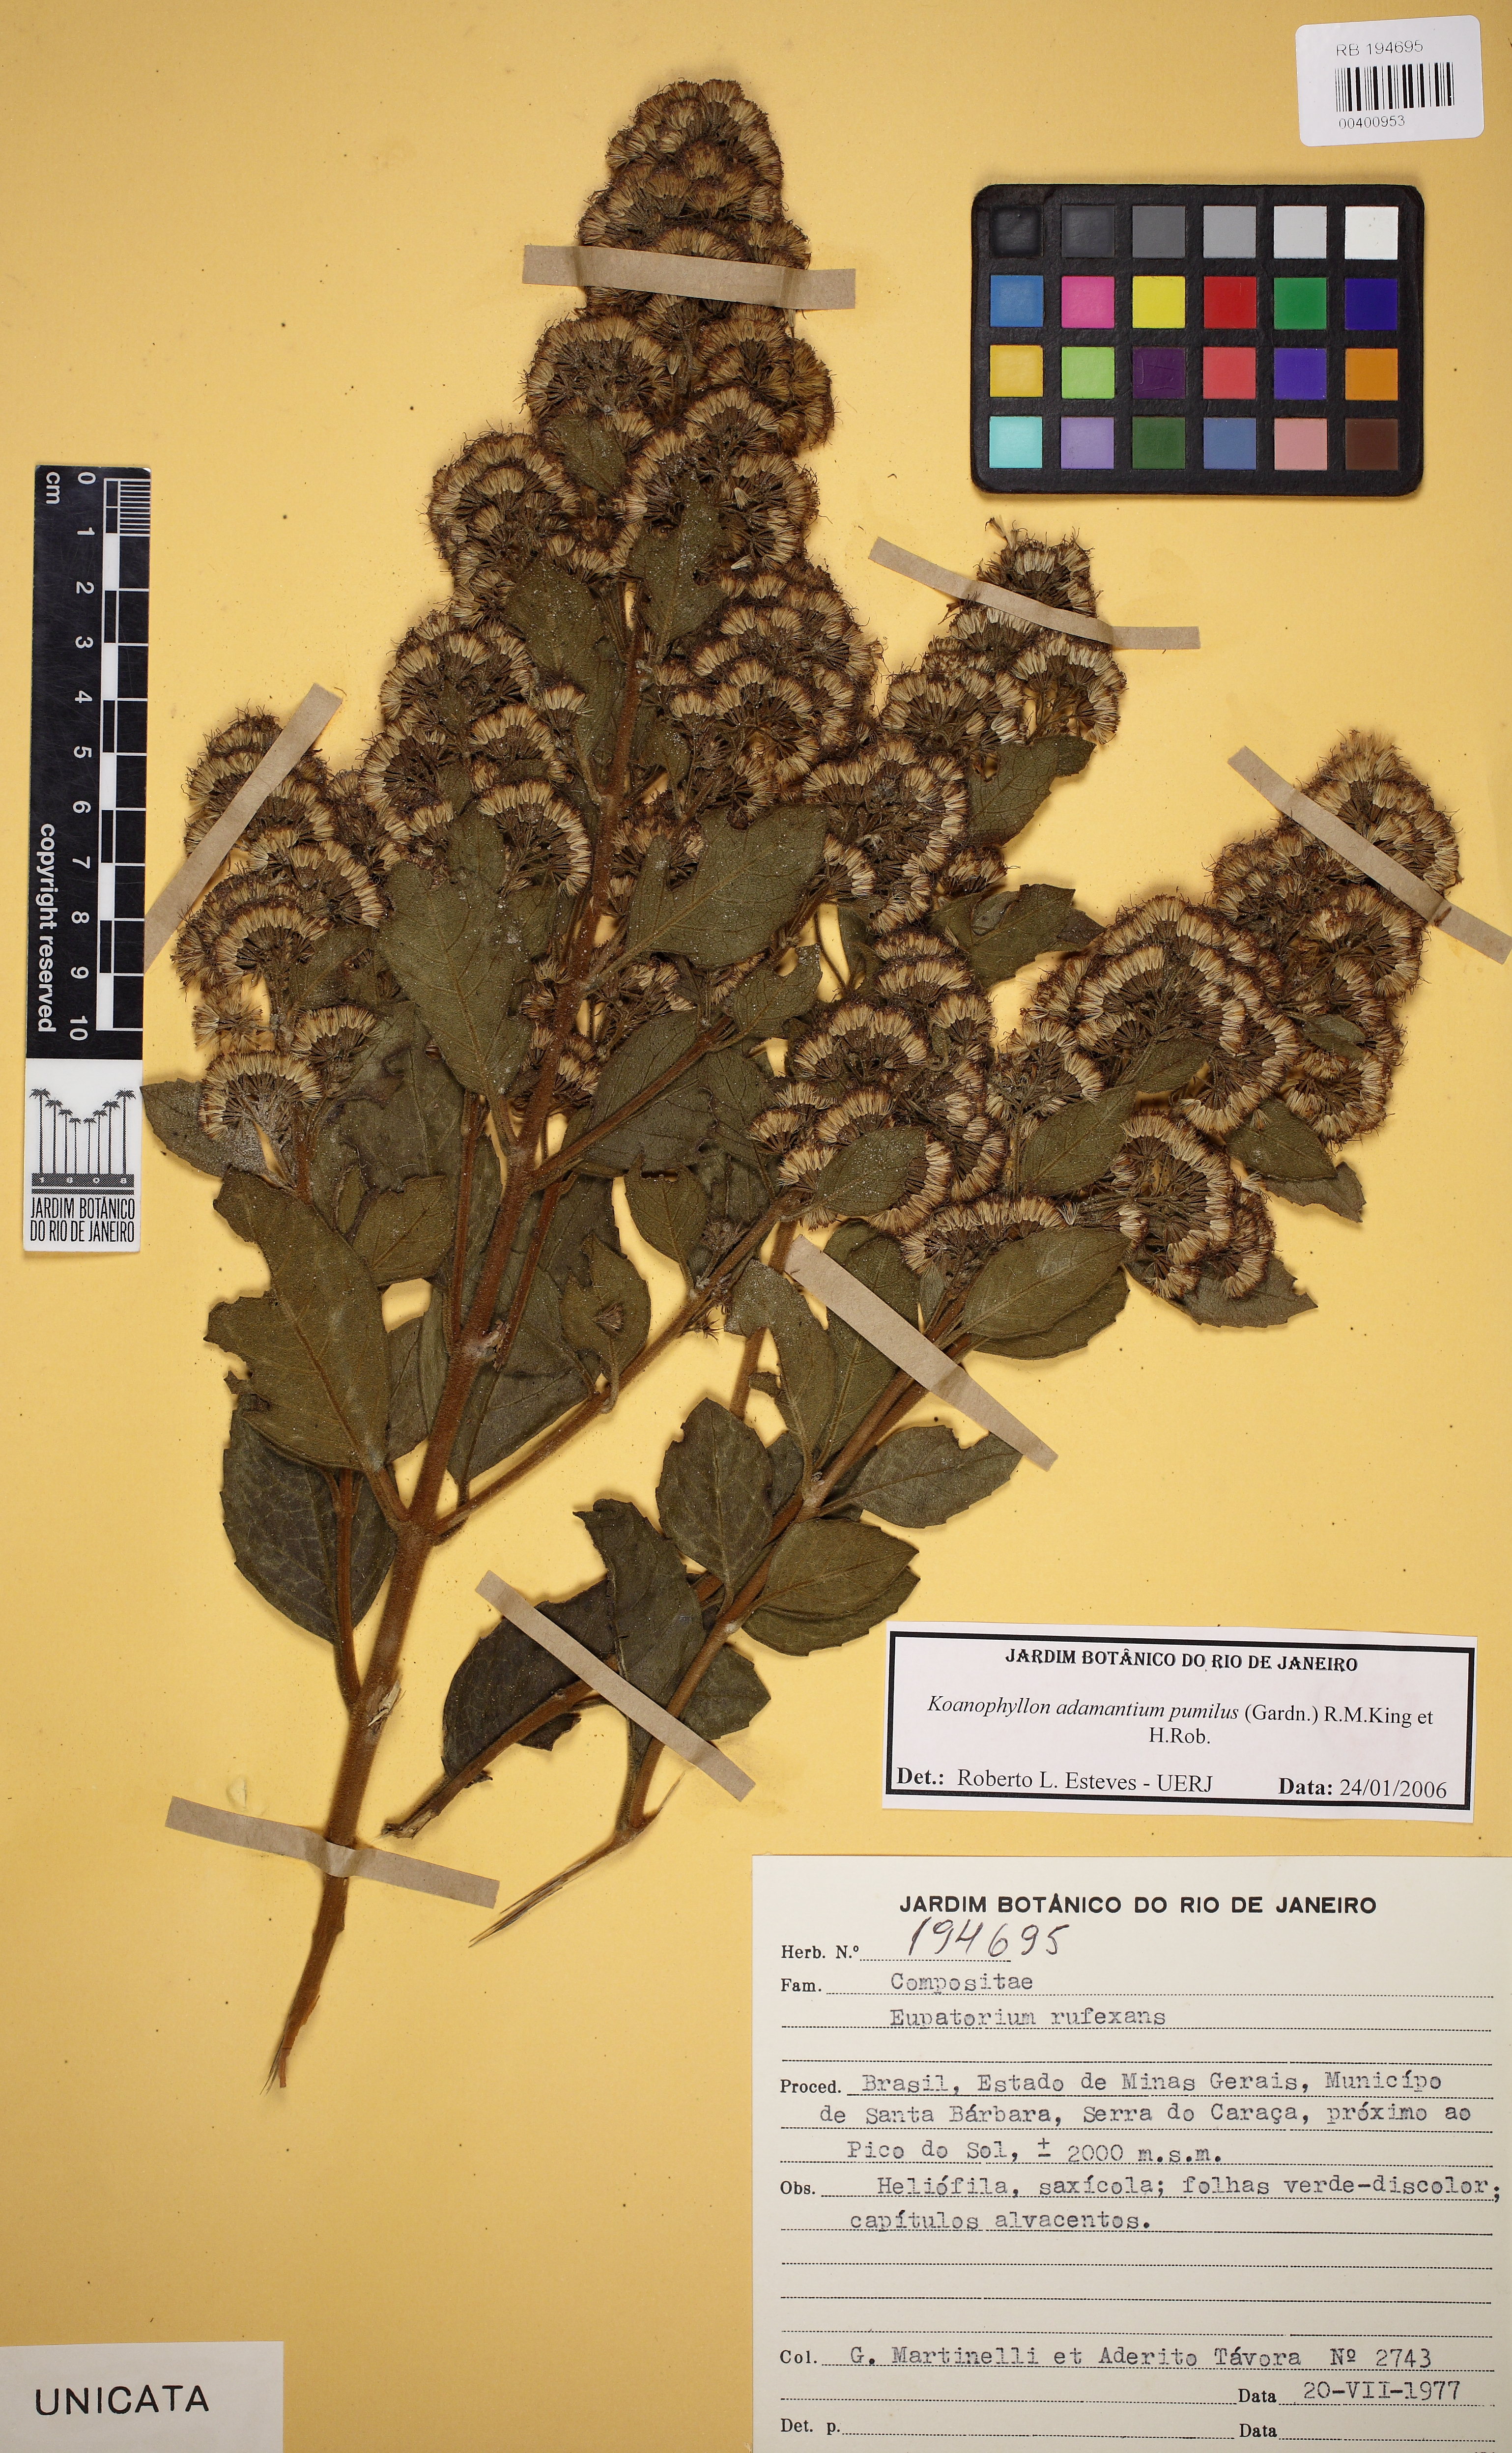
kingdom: Plantae
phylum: Tracheophyta
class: Magnoliopsida
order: Asterales
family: Asteraceae
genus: Koanophyllon
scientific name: Koanophyllon adamantium
